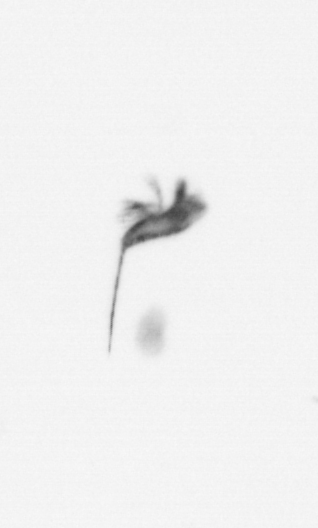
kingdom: Animalia
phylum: Arthropoda
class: Copepoda
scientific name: Copepoda
